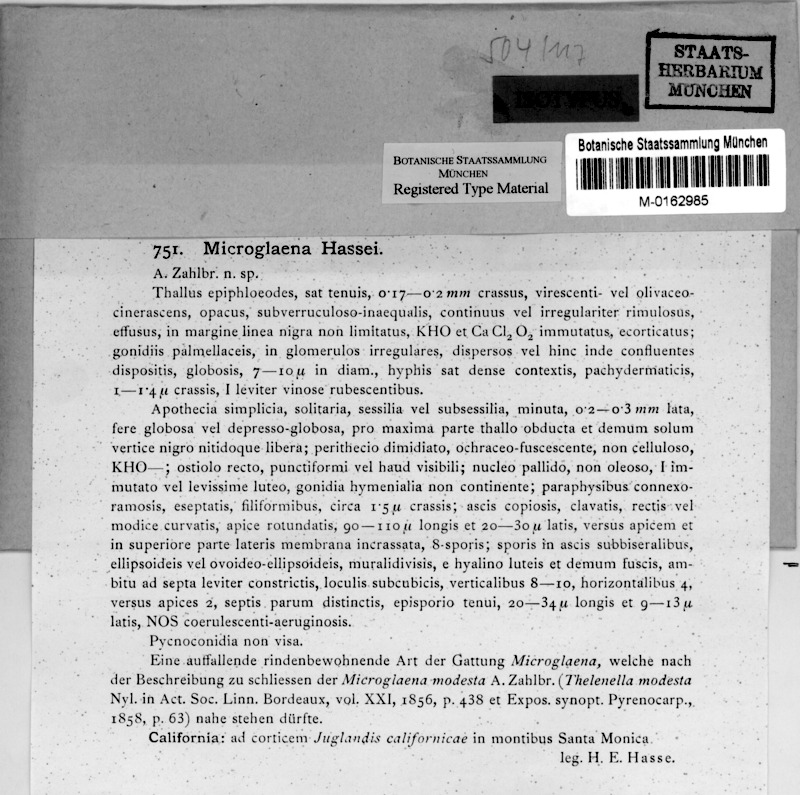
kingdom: Fungi
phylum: Ascomycota
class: Lecanoromycetes
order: Ostropales
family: Thelenellaceae
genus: Thelenella
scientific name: Thelenella hassei
